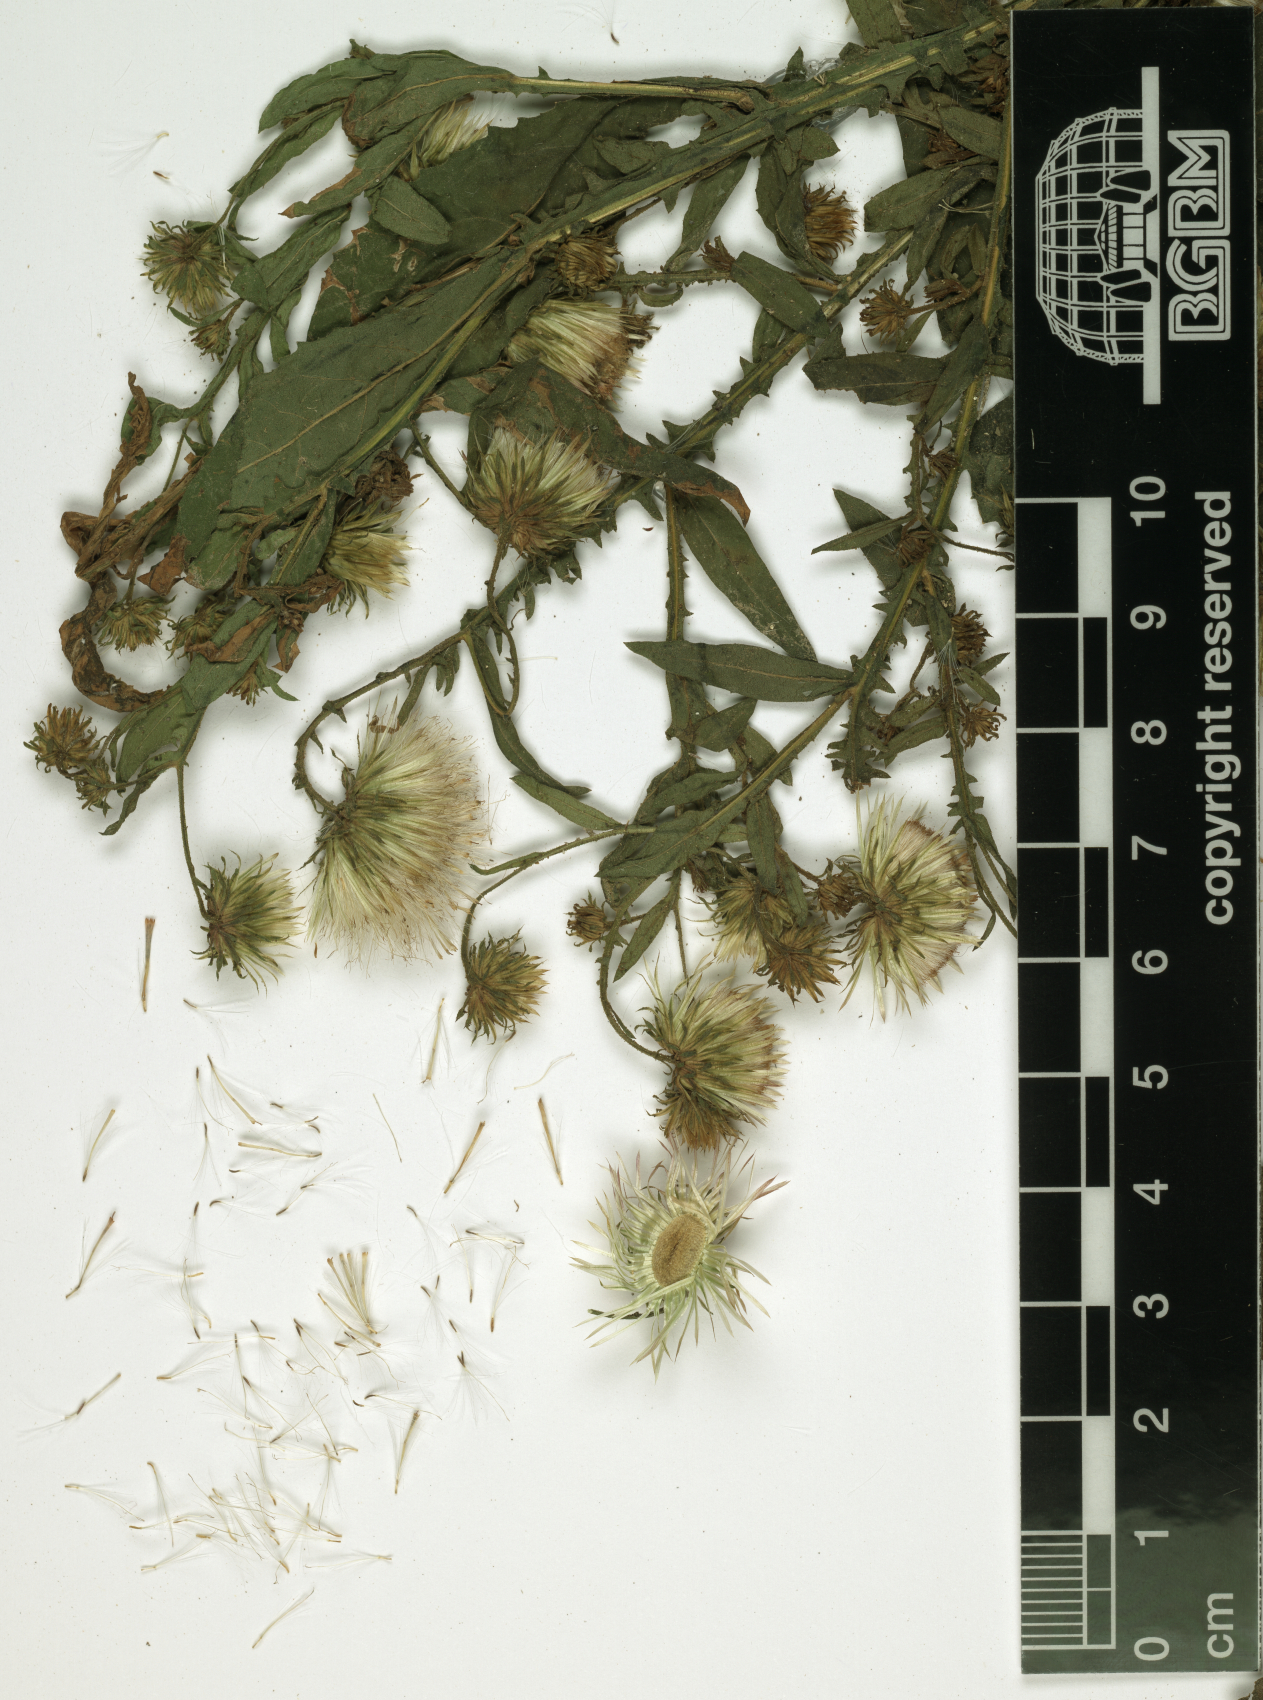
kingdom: Plantae
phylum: Tracheophyta
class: Magnoliopsida
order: Asterales
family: Asteraceae
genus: Laggera
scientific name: Laggera crispata
